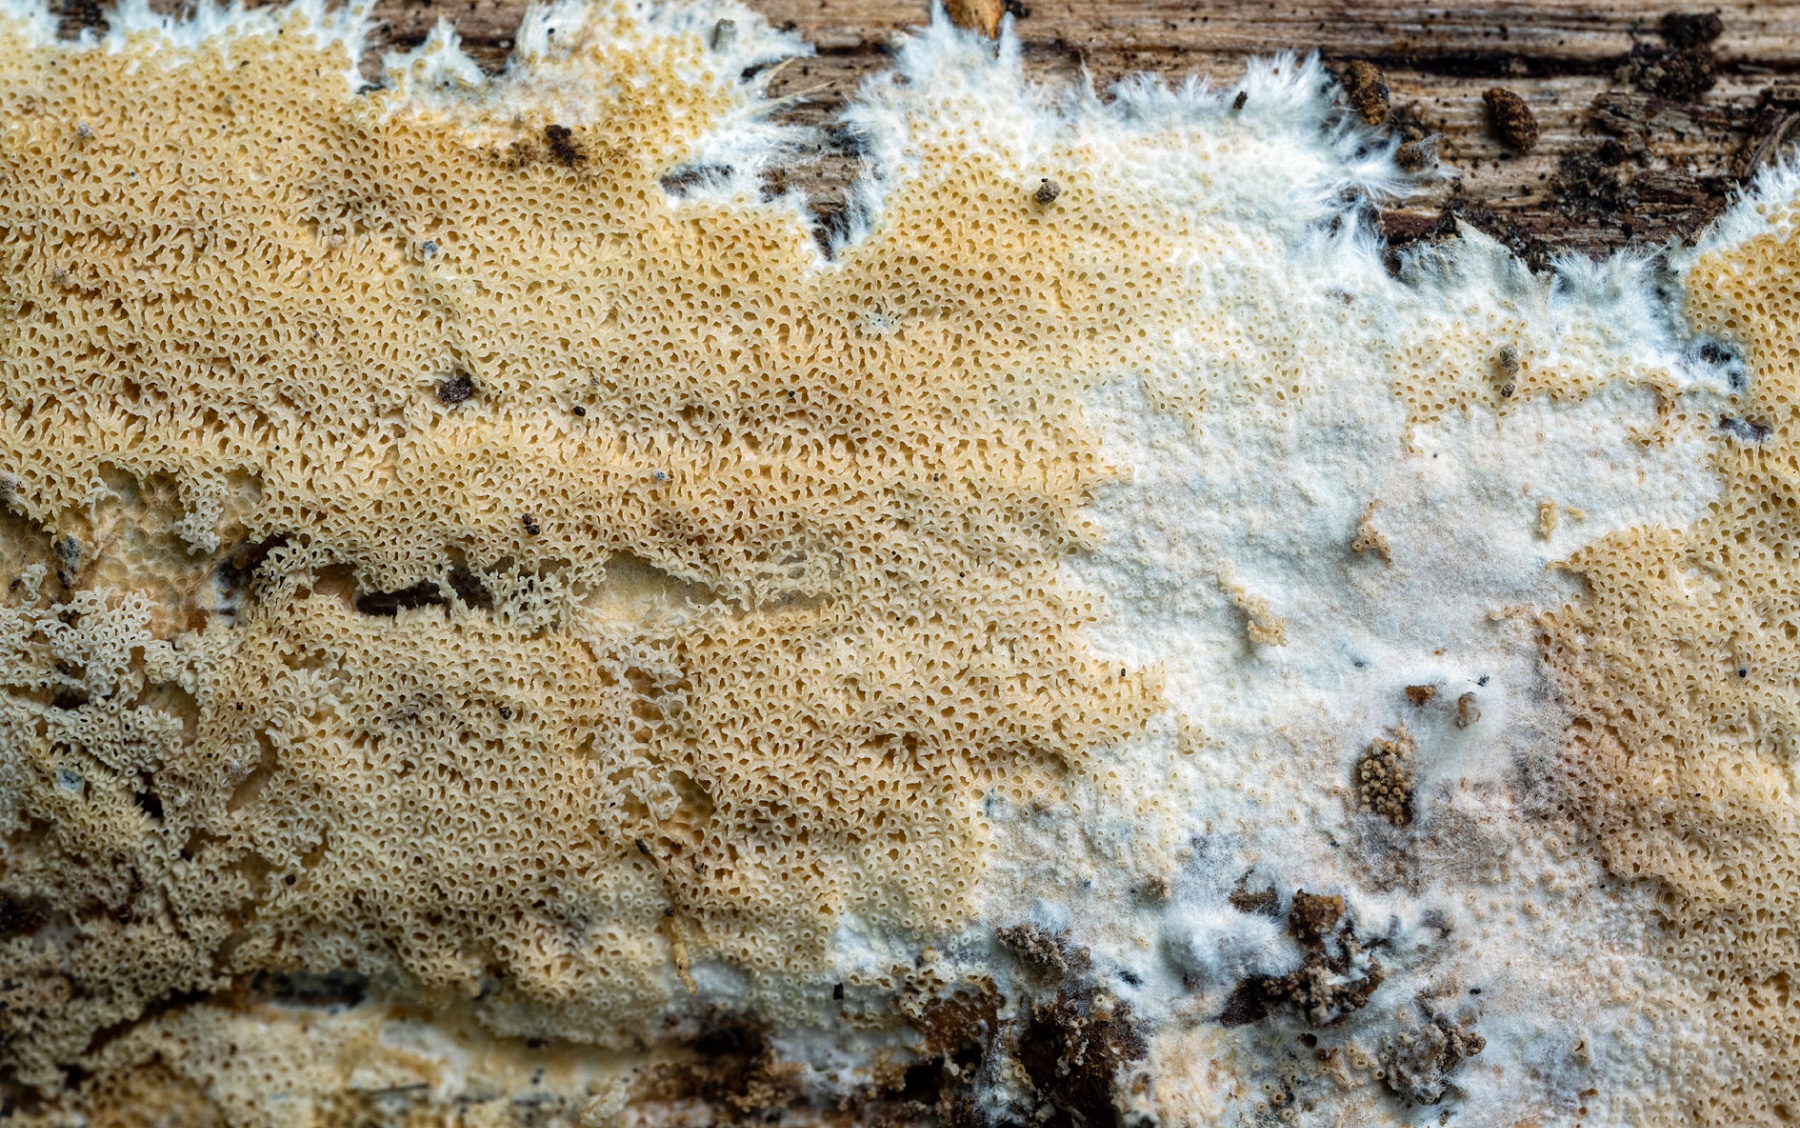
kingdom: Fungi
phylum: Basidiomycota
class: Agaricomycetes
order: Agaricales
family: Porotheleaceae
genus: Porotheleum
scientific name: Porotheleum fimbriatum
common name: poreskål
